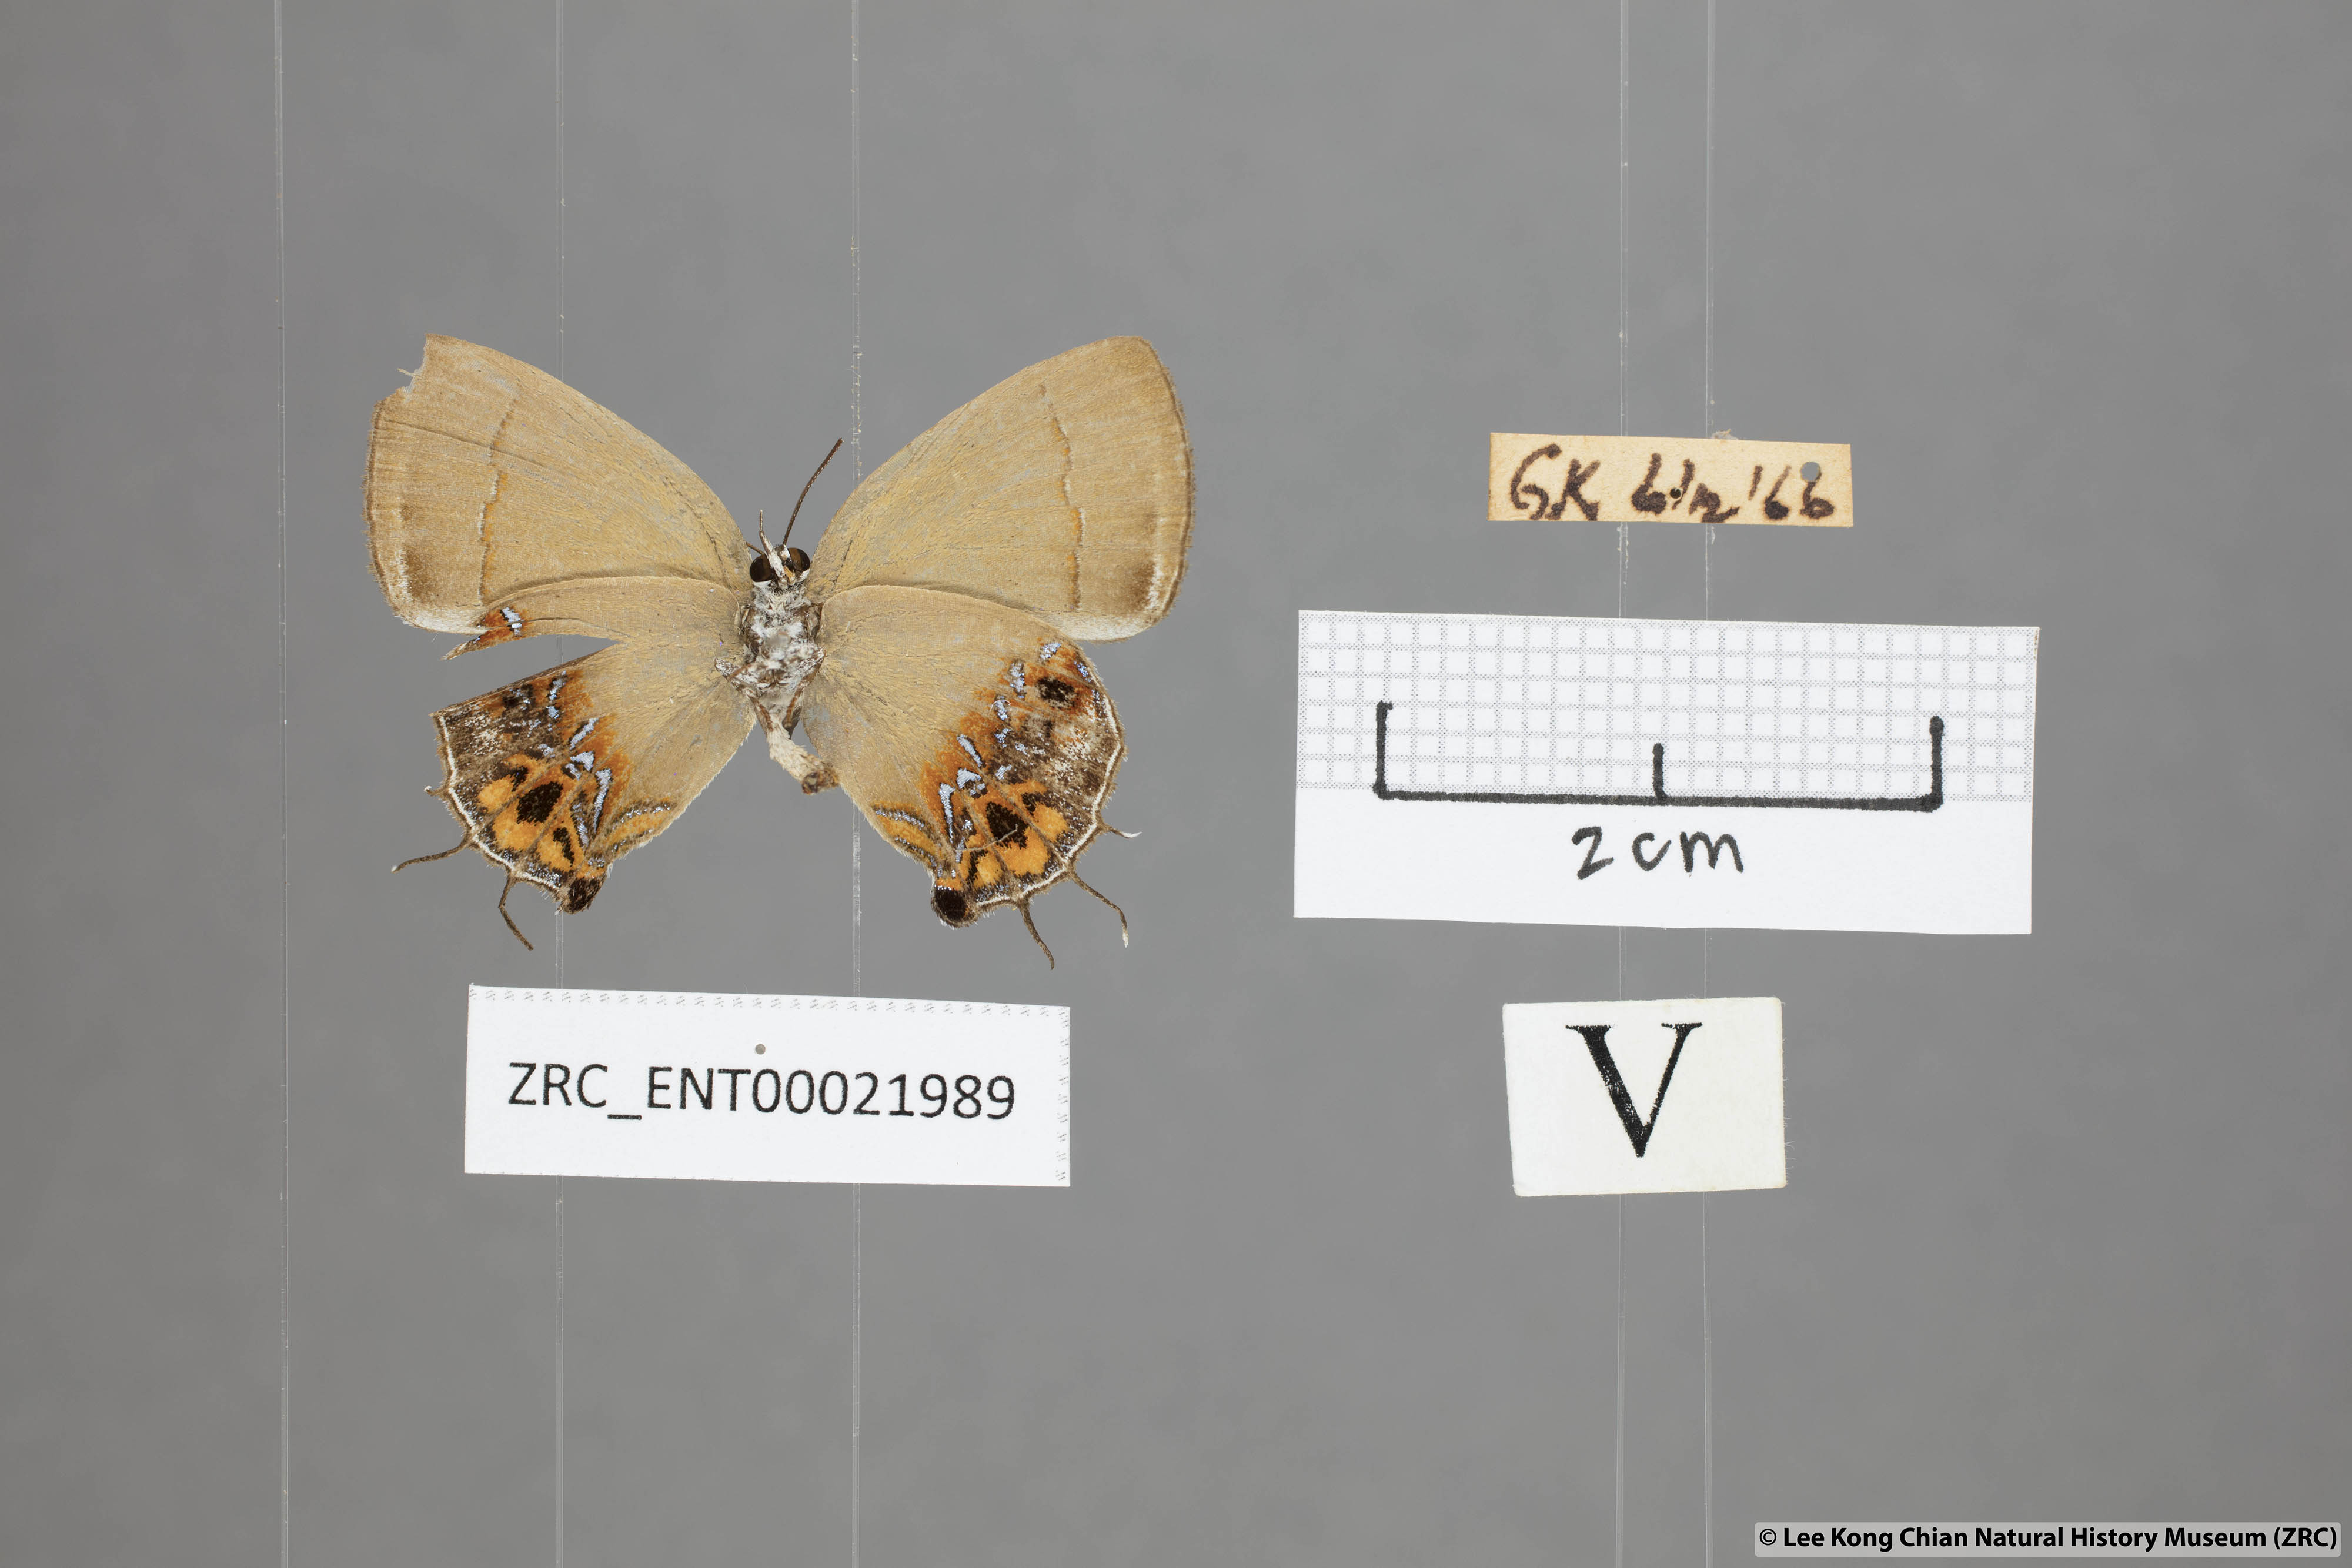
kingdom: Animalia
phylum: Arthropoda
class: Insecta
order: Lepidoptera
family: Lycaenidae
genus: Semanga
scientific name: Semanga superba
